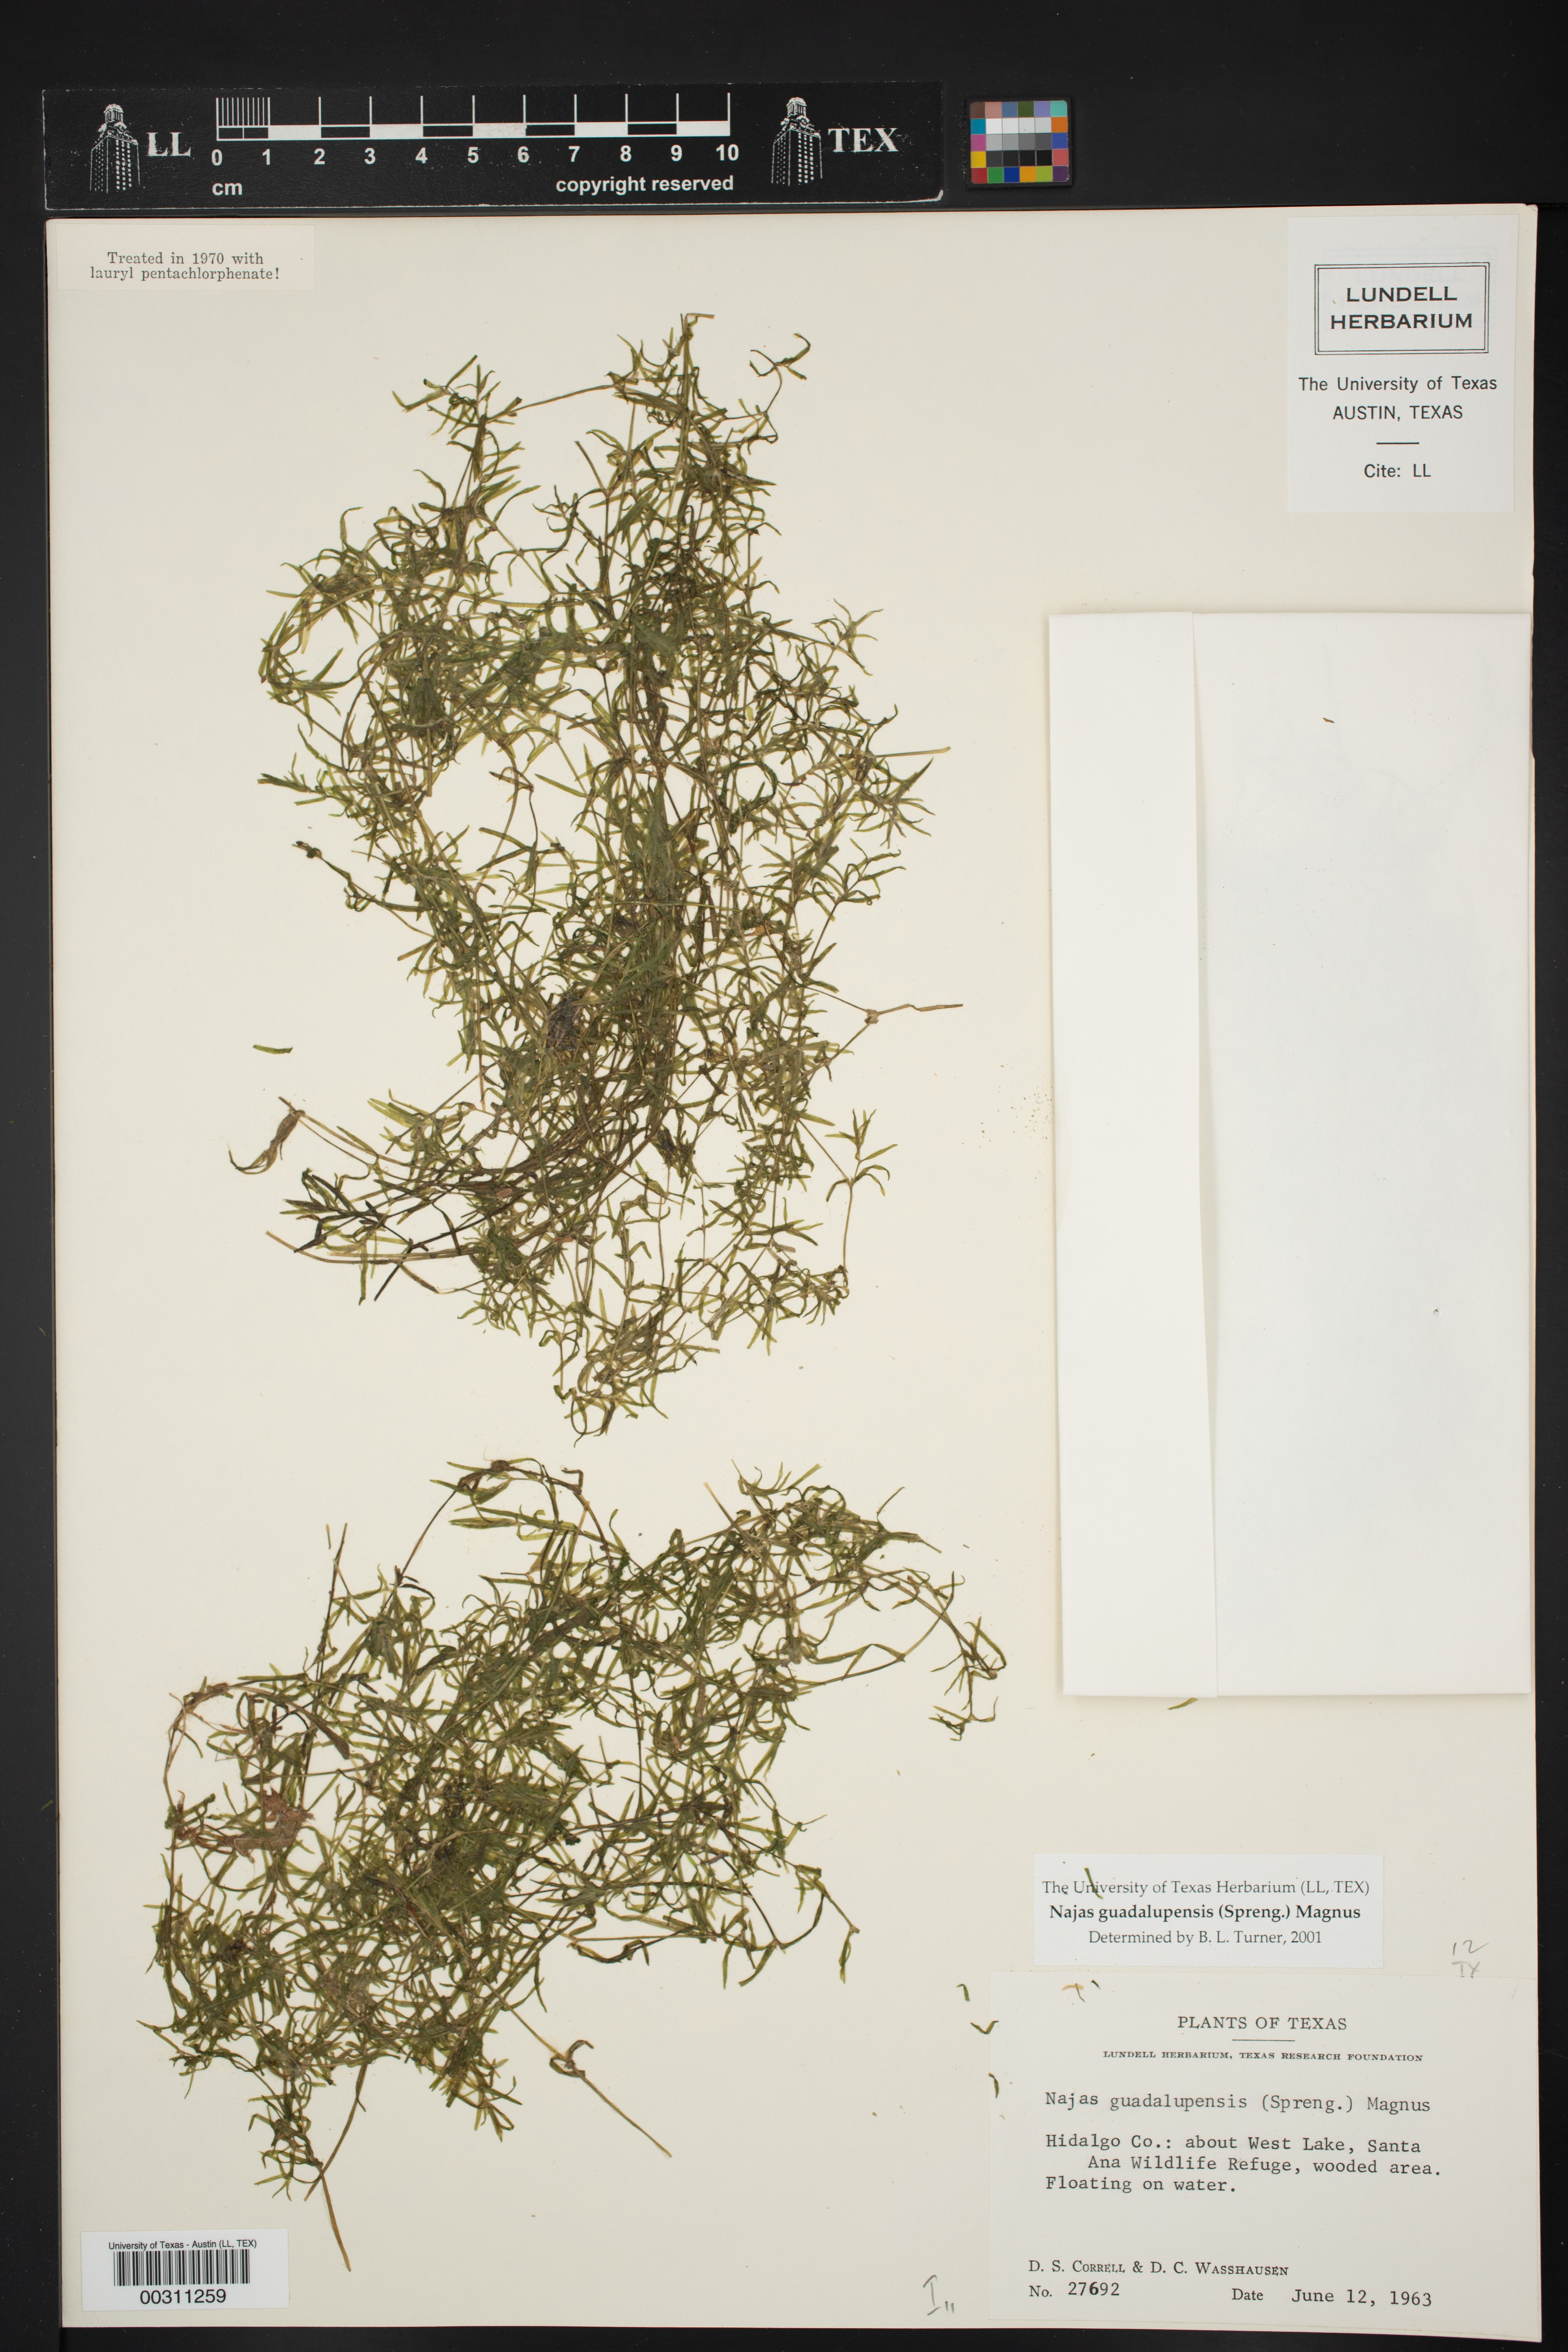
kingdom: Plantae
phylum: Tracheophyta
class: Liliopsida
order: Alismatales
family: Hydrocharitaceae
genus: Najas
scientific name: Najas guadalupensis
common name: Southern naiad
